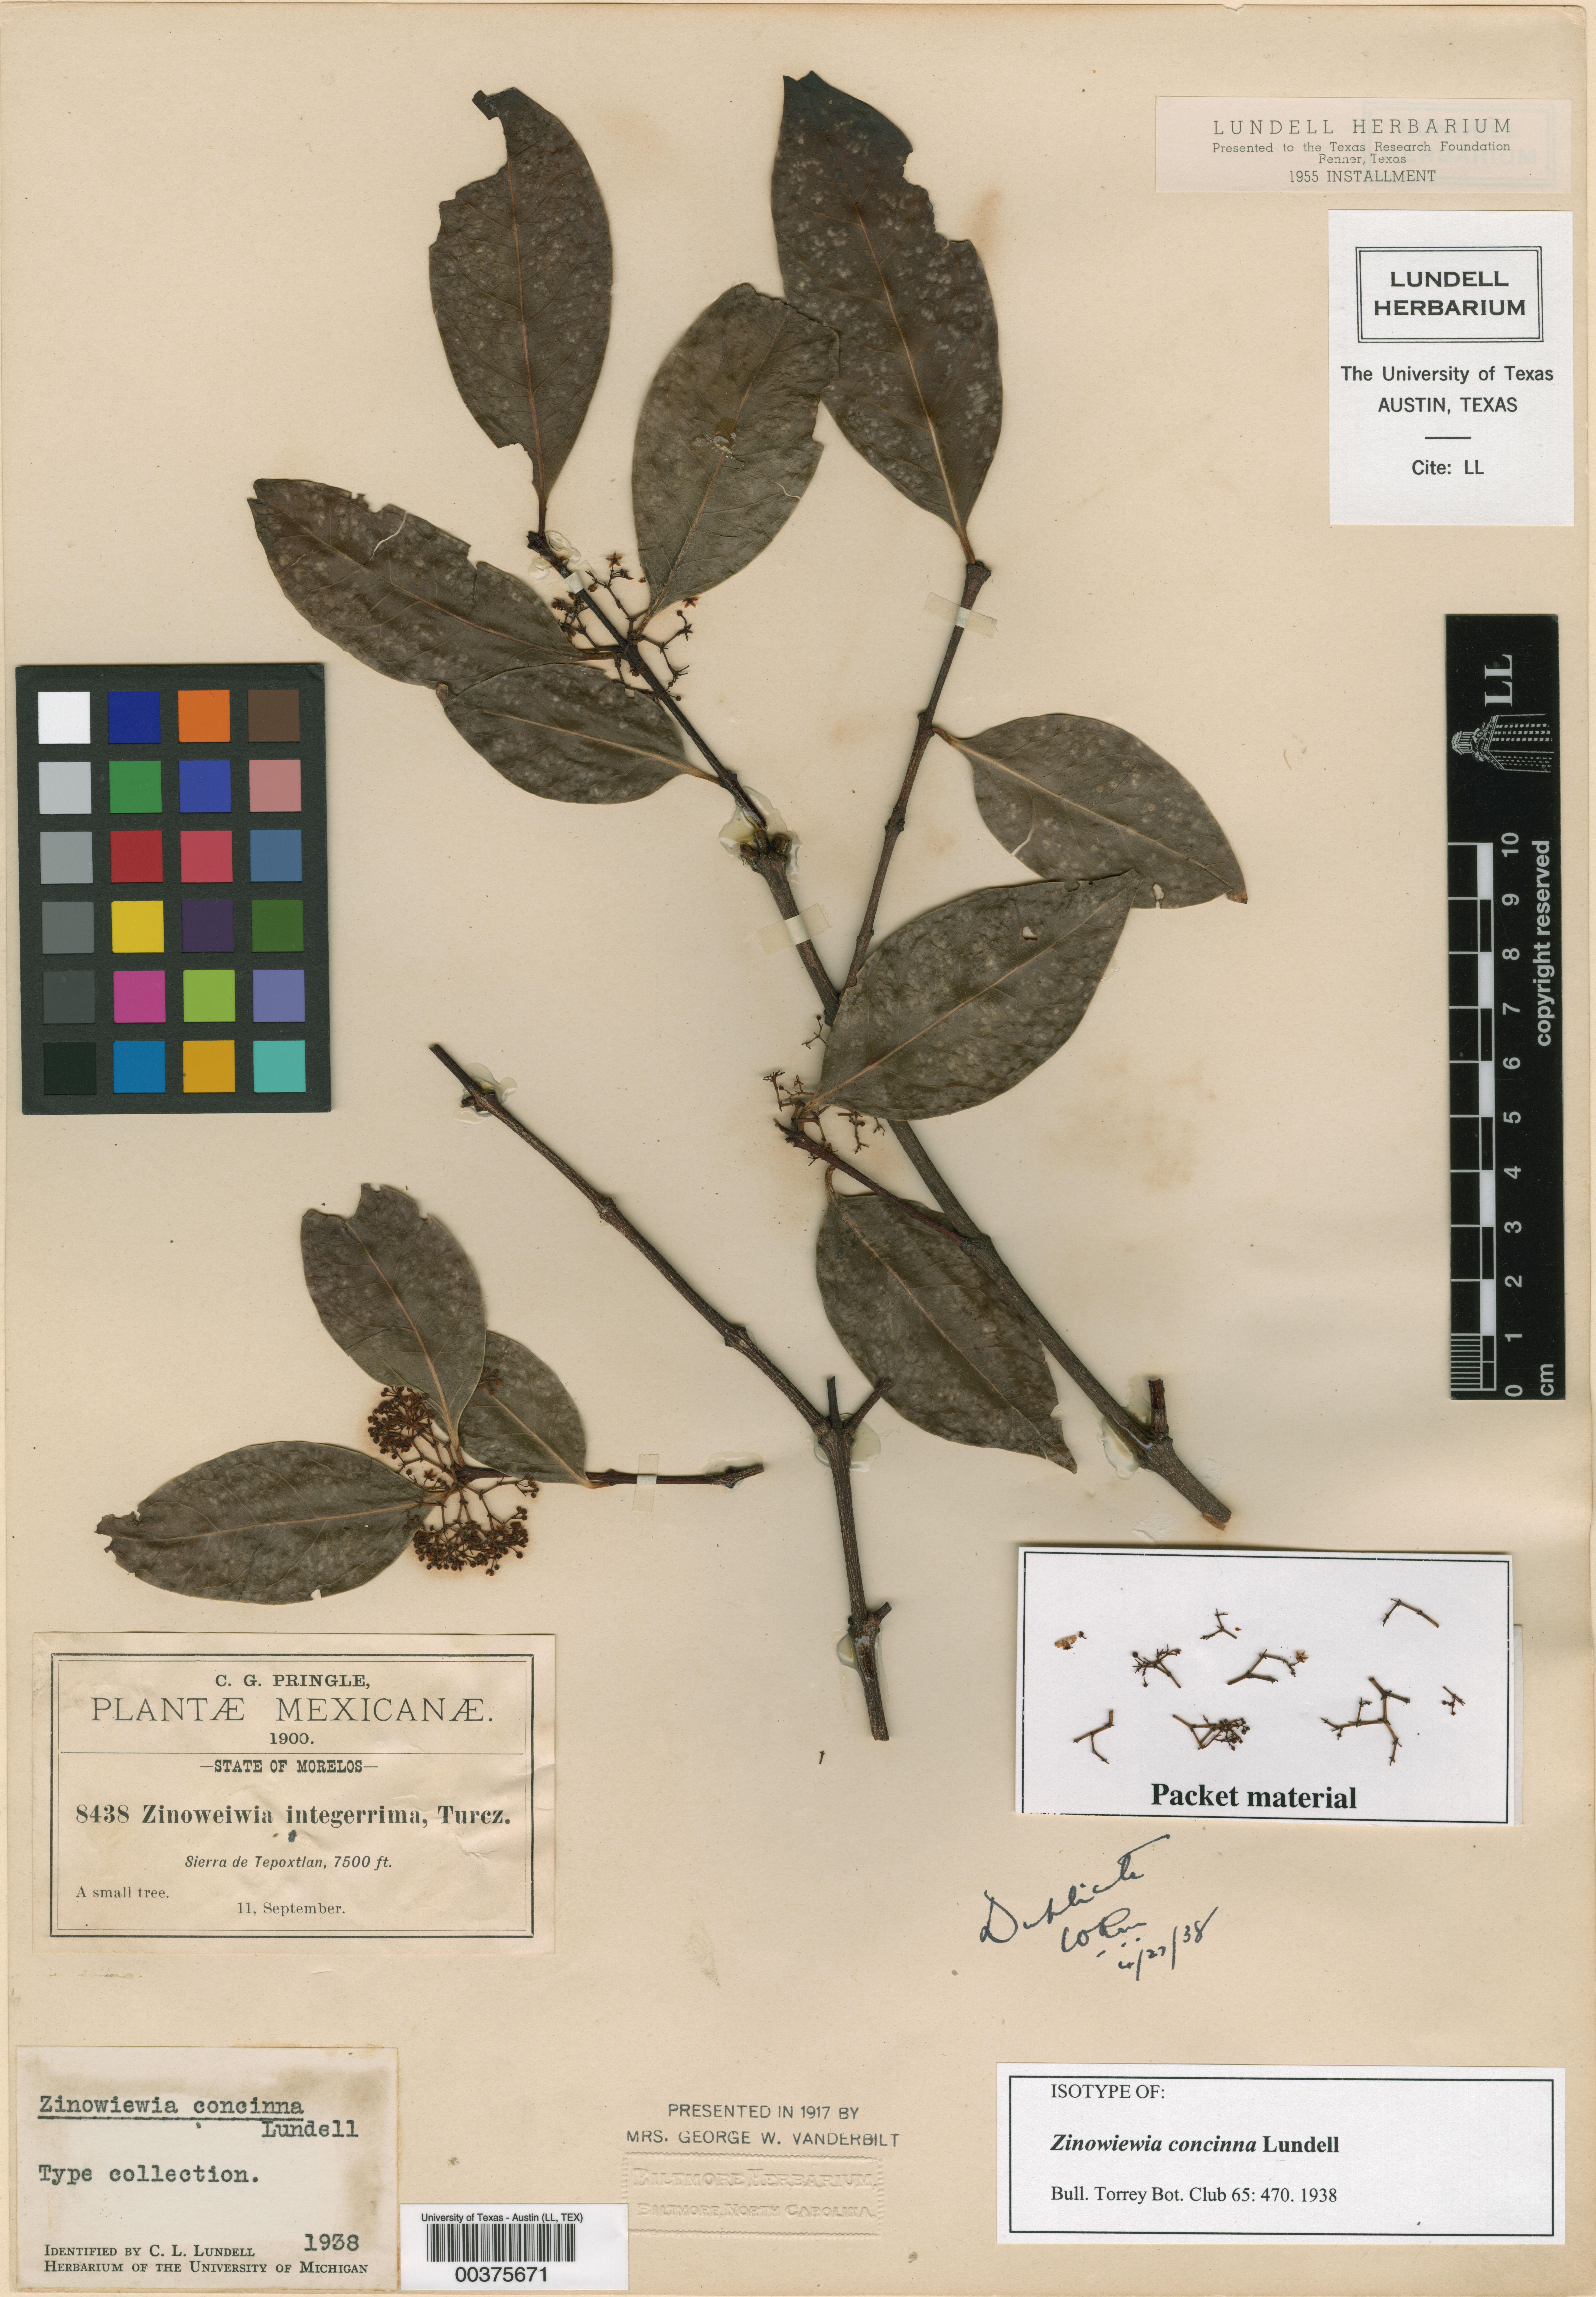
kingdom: Plantae
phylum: Tracheophyta
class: Magnoliopsida
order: Celastrales
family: Celastraceae
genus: Zinowiewia
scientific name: Zinowiewia concinna
